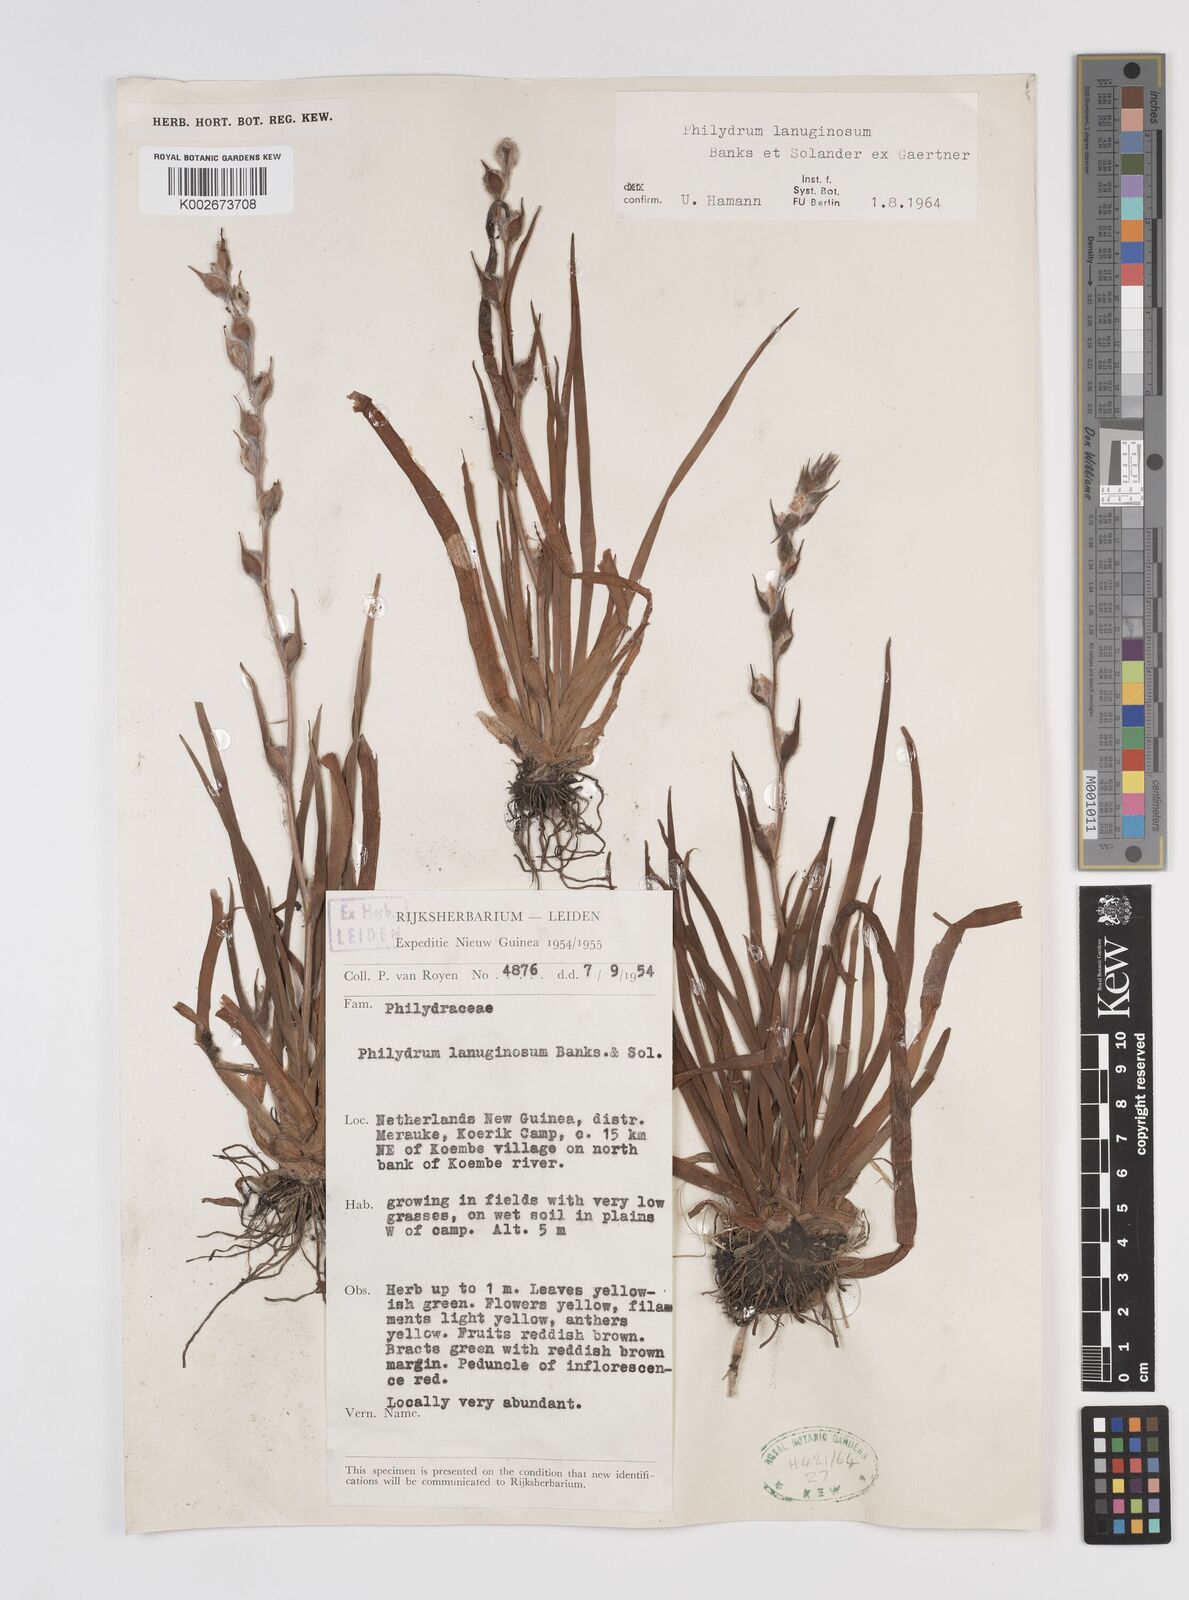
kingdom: Plantae
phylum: Tracheophyta
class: Liliopsida
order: Commelinales
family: Philydraceae
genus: Philydrum
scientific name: Philydrum lanuginosum
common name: Woolly frog's mouth
